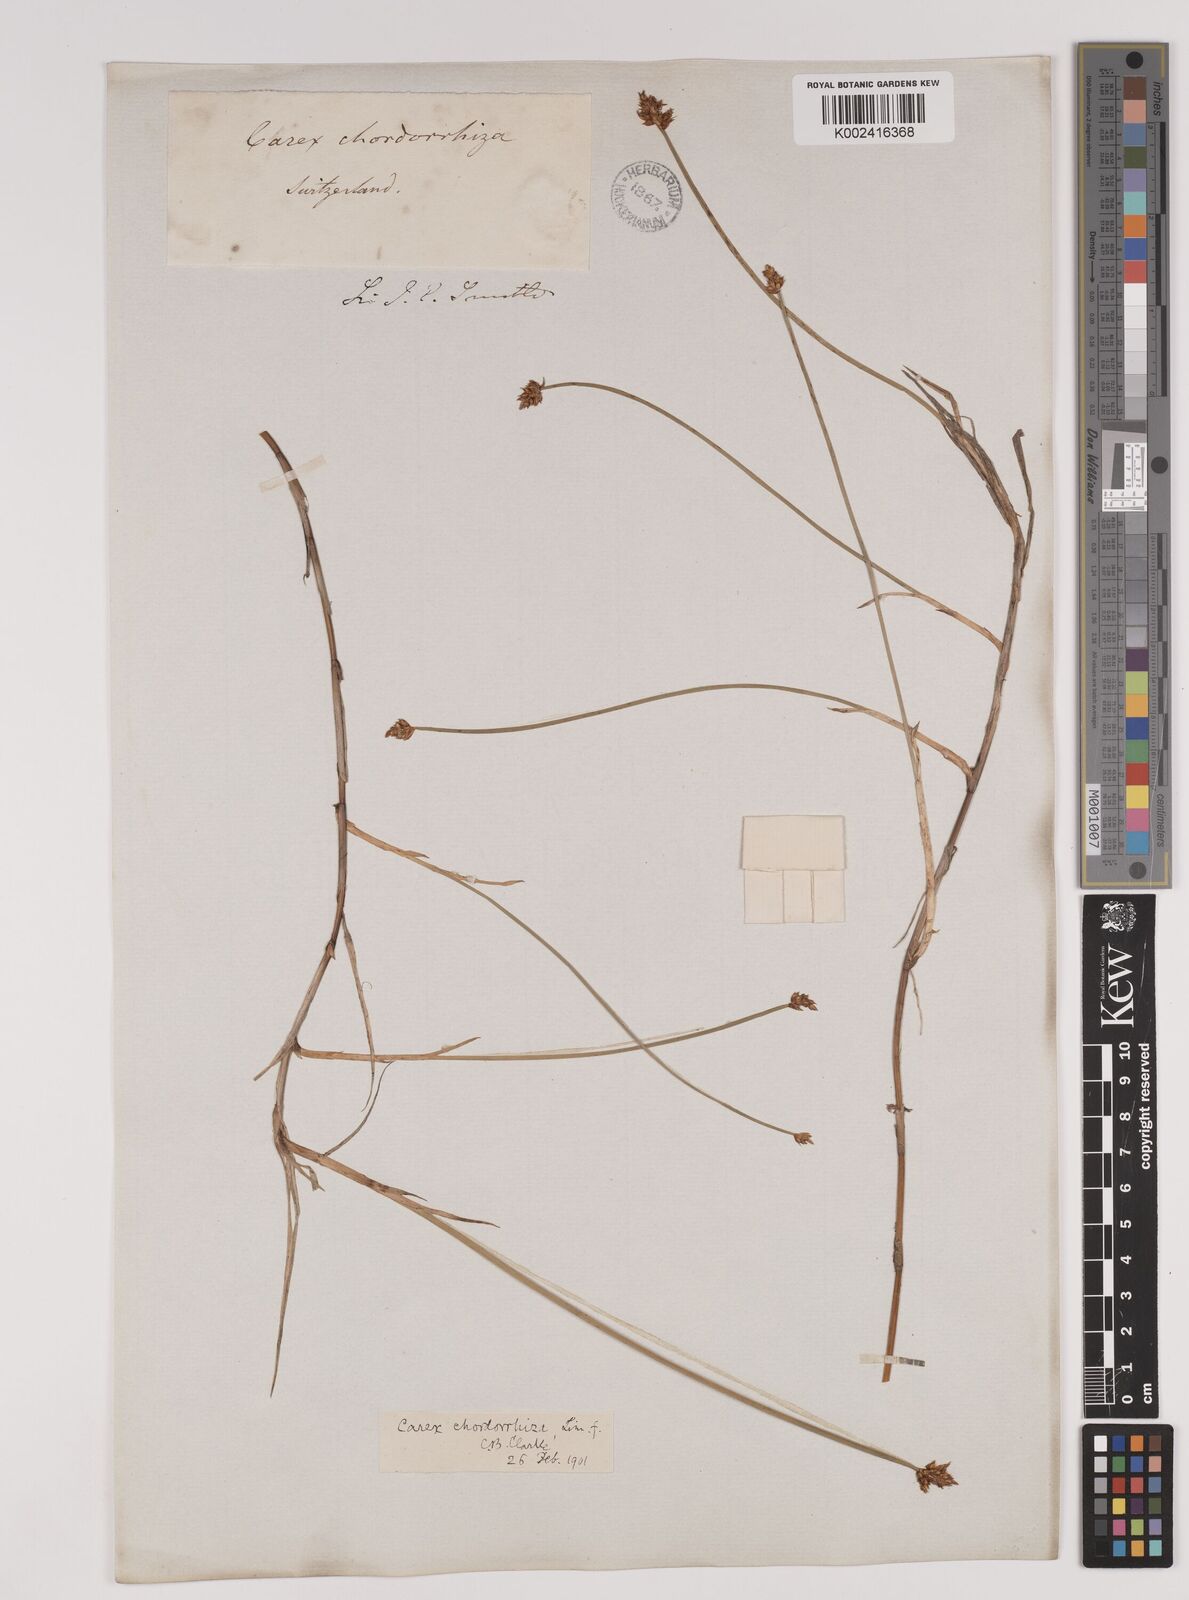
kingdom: Plantae
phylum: Tracheophyta
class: Liliopsida
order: Poales
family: Cyperaceae
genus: Carex
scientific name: Carex chordorrhiza
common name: String sedge
